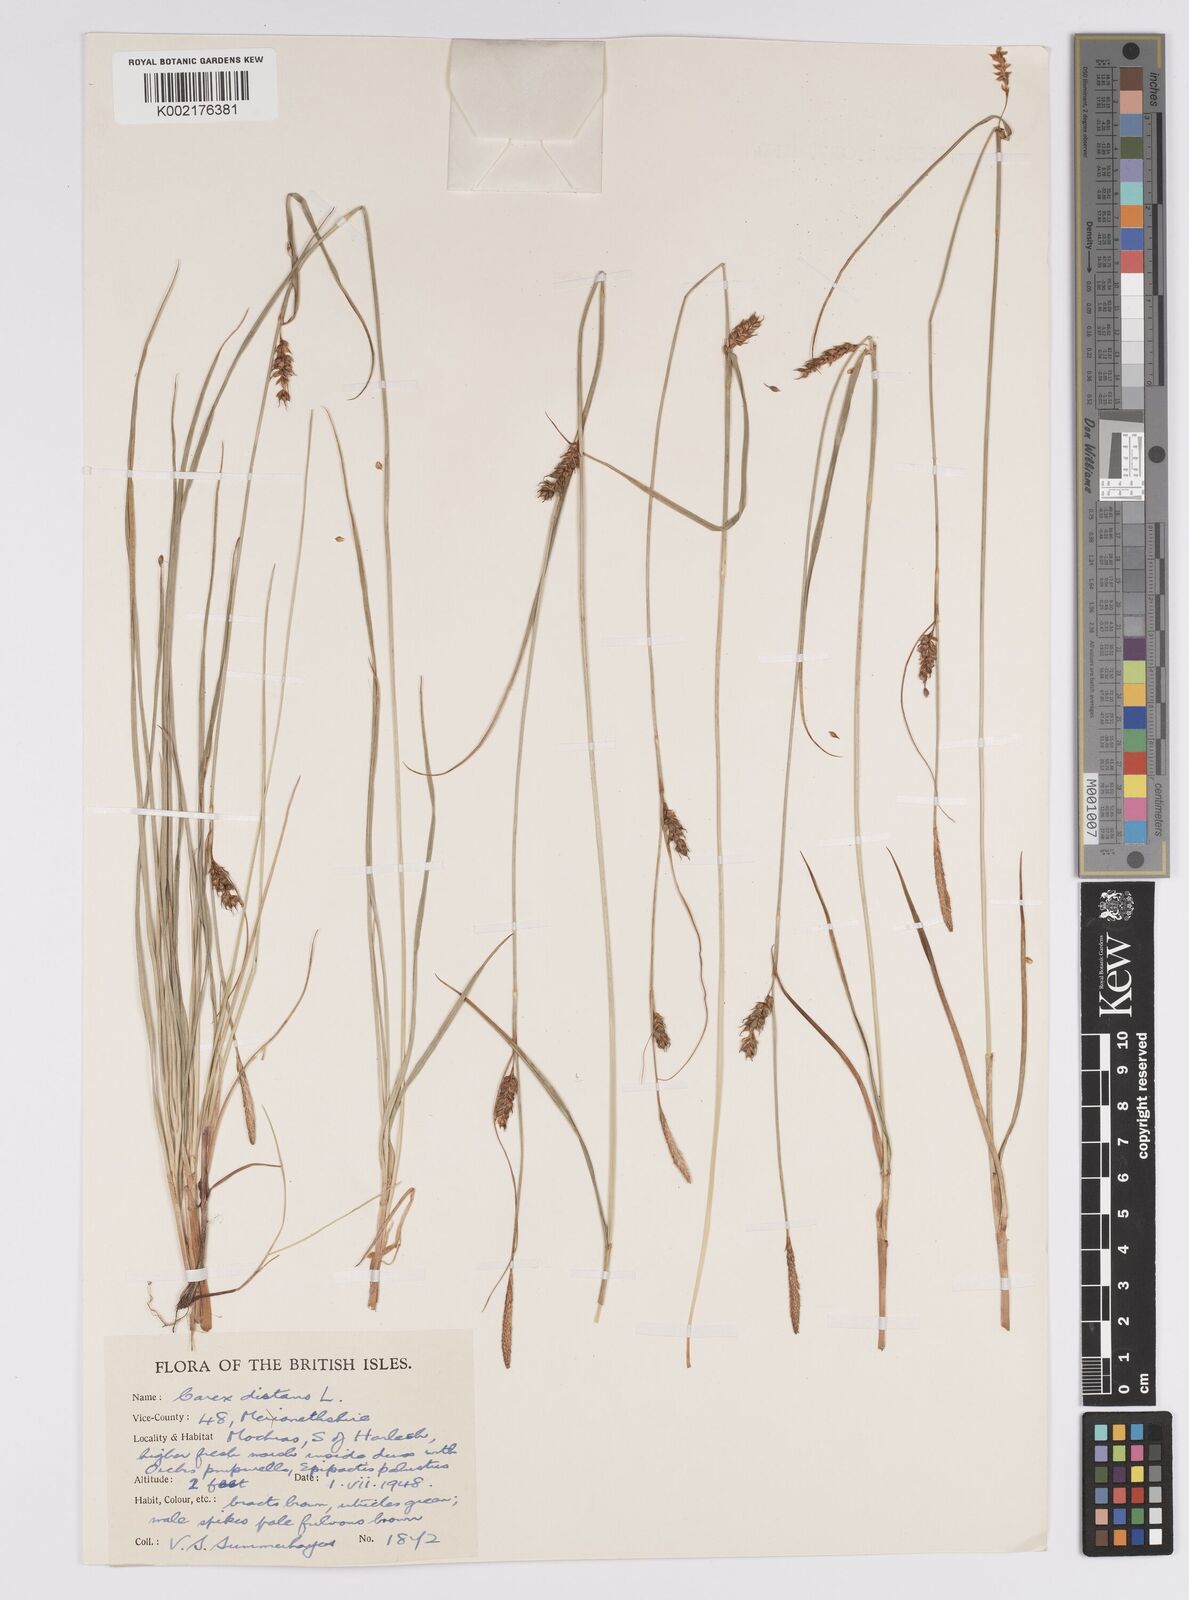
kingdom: Plantae
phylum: Tracheophyta
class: Liliopsida
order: Poales
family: Cyperaceae
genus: Carex
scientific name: Carex distans
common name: Distant sedge
